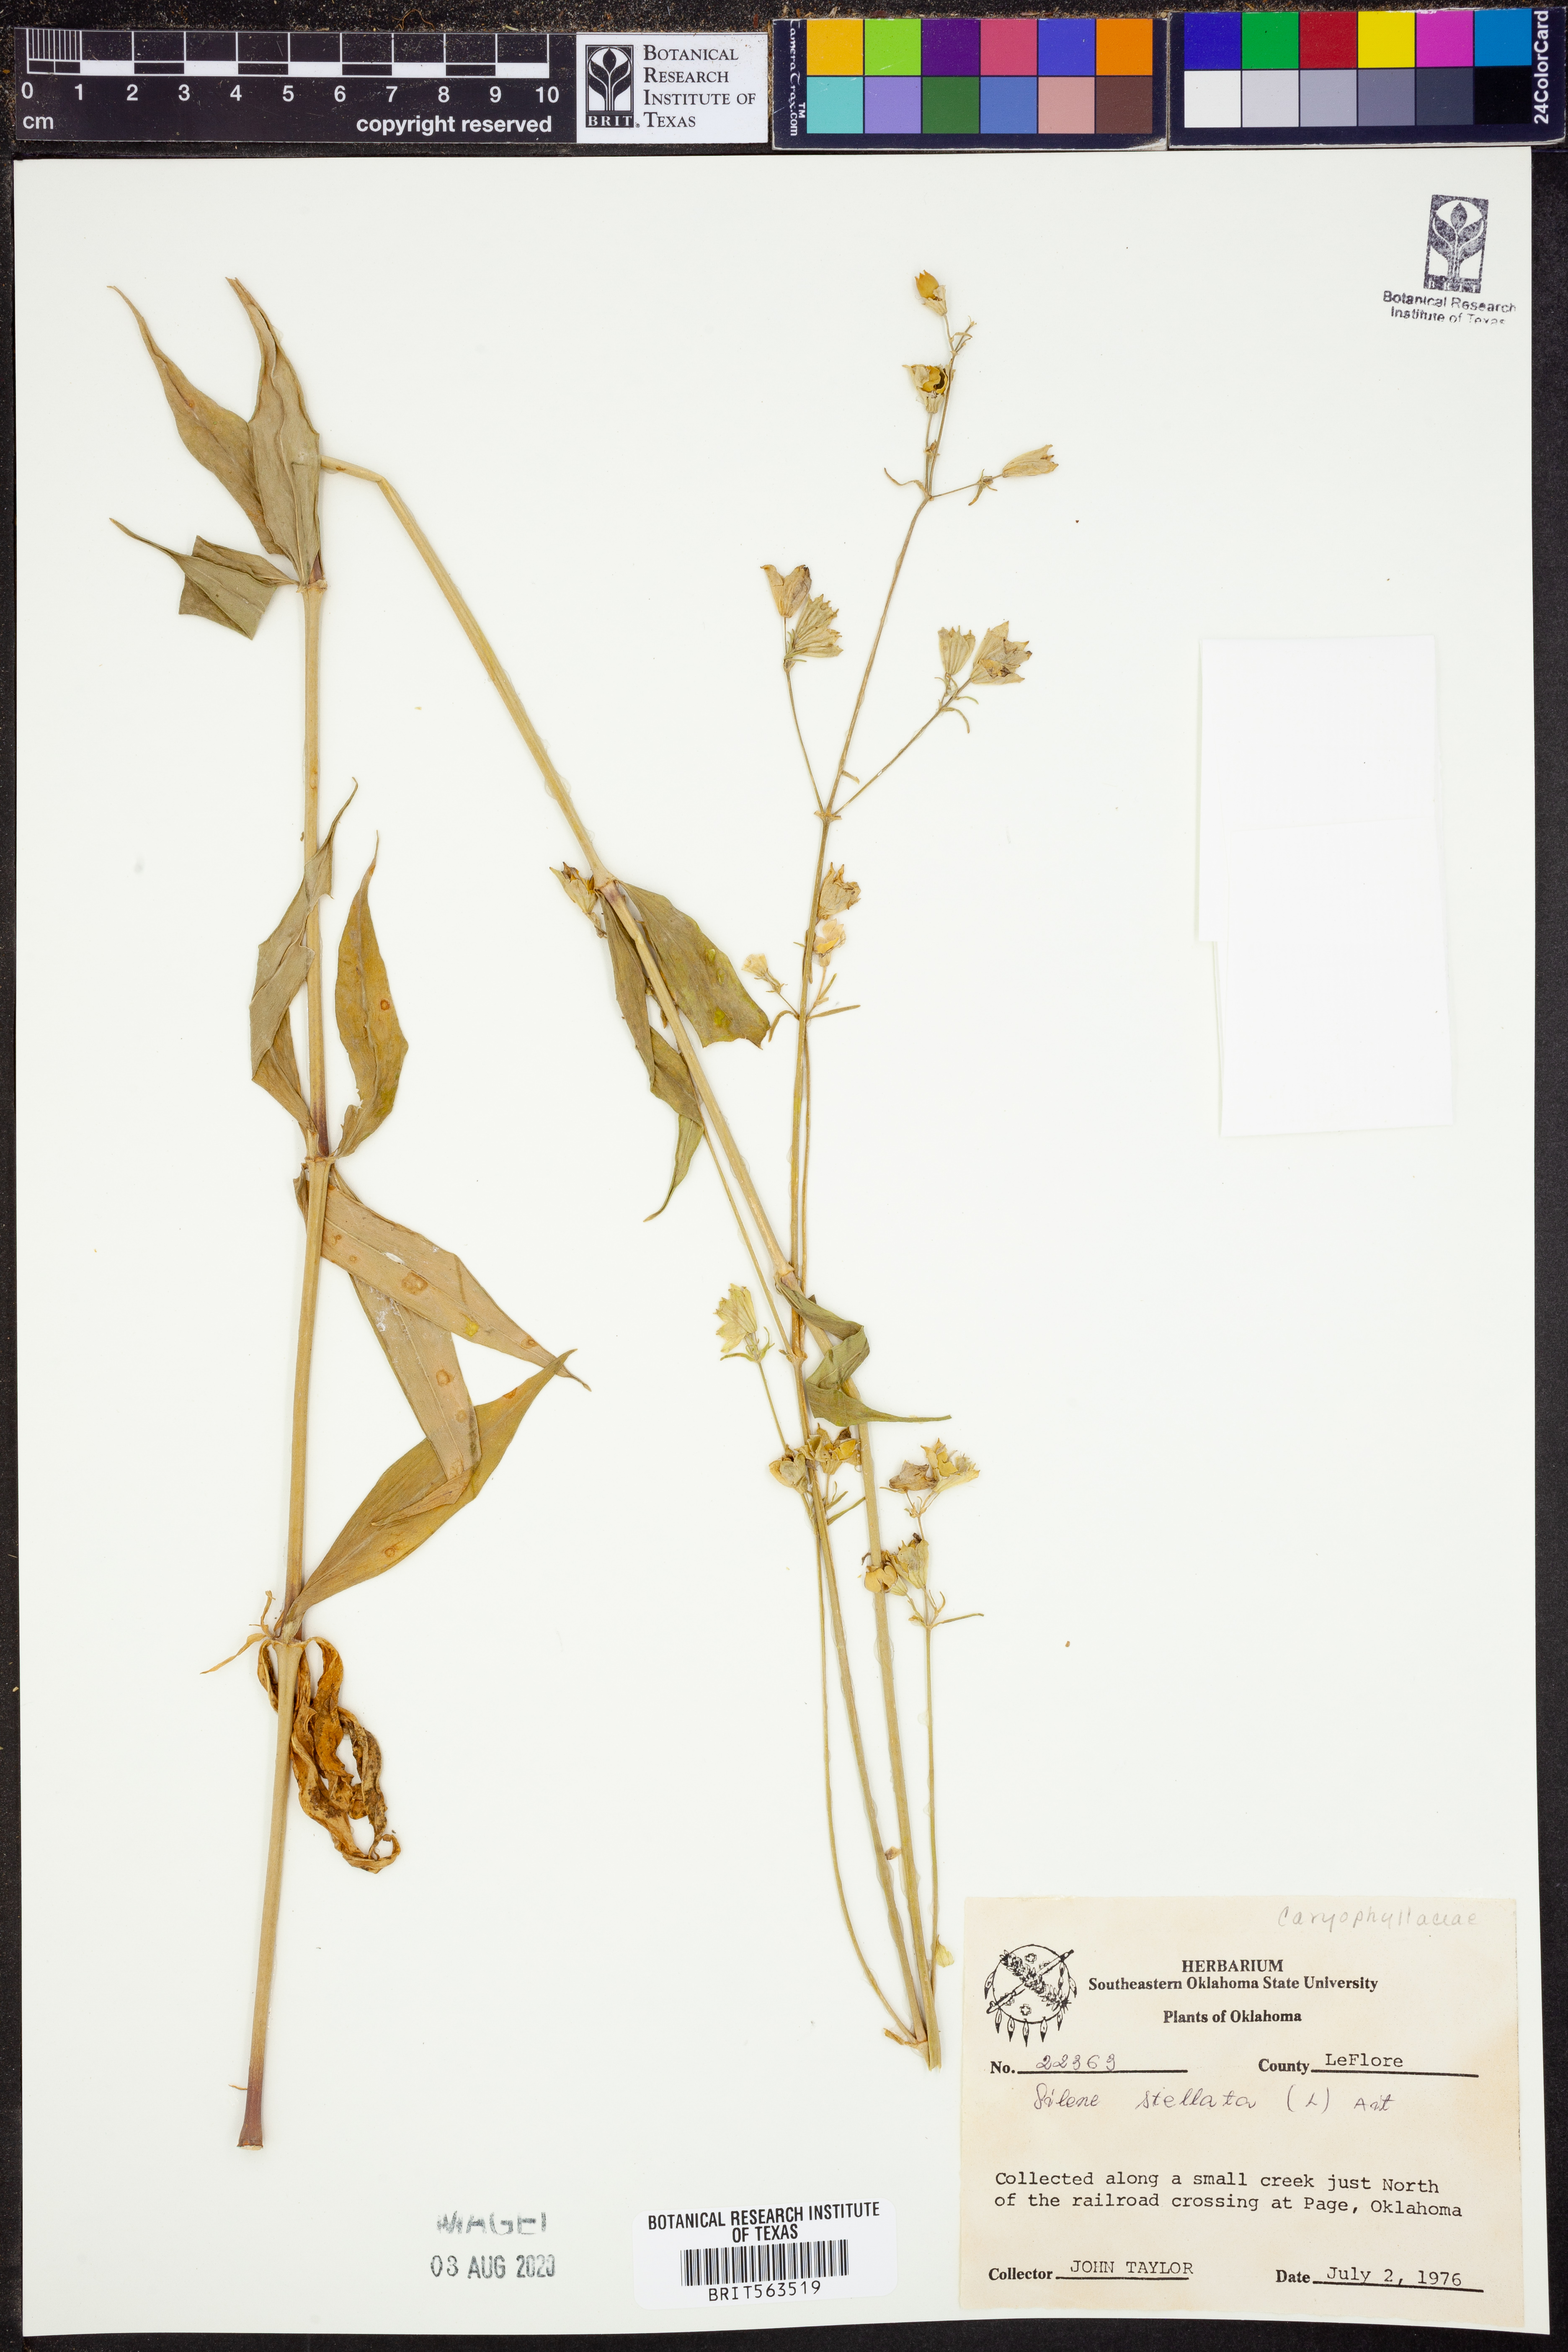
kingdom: Plantae
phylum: Tracheophyta
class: Magnoliopsida
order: Caryophyllales
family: Caryophyllaceae
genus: Silene
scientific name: Silene stellata
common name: Starry campion
